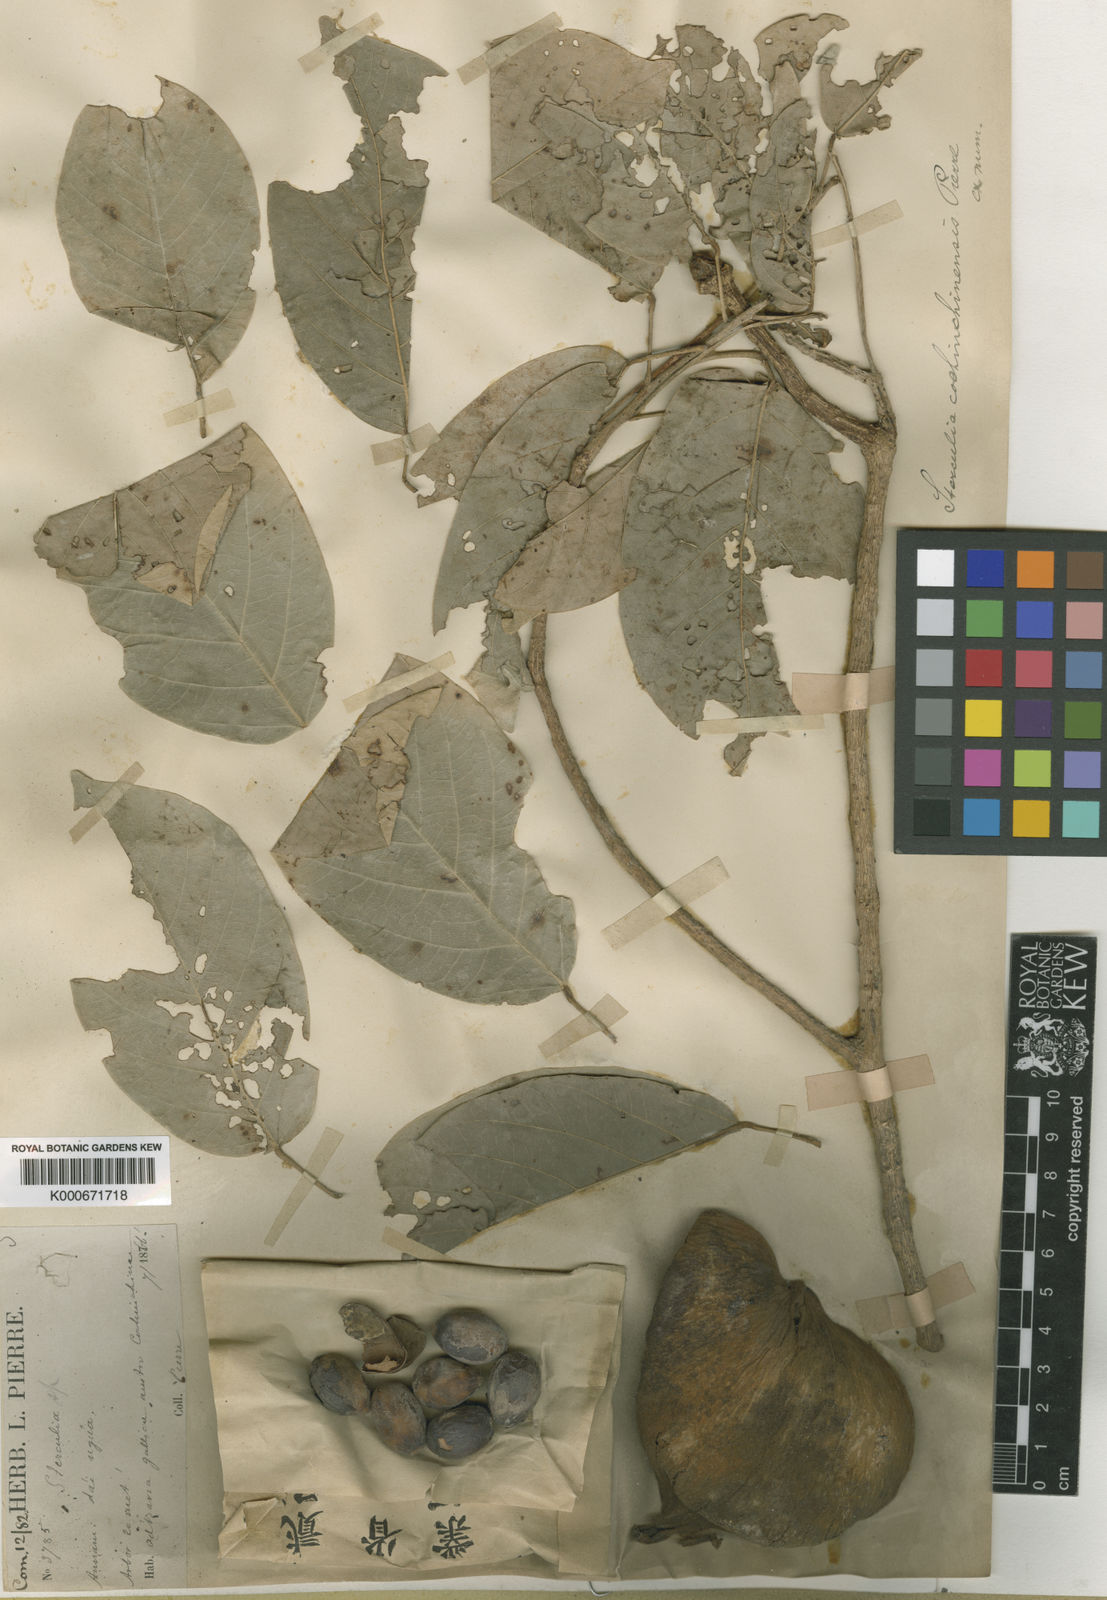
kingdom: Plantae
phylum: Tracheophyta
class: Magnoliopsida
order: Malvales
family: Malvaceae
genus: Sterculia
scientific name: Sterculia cochinchinensis
